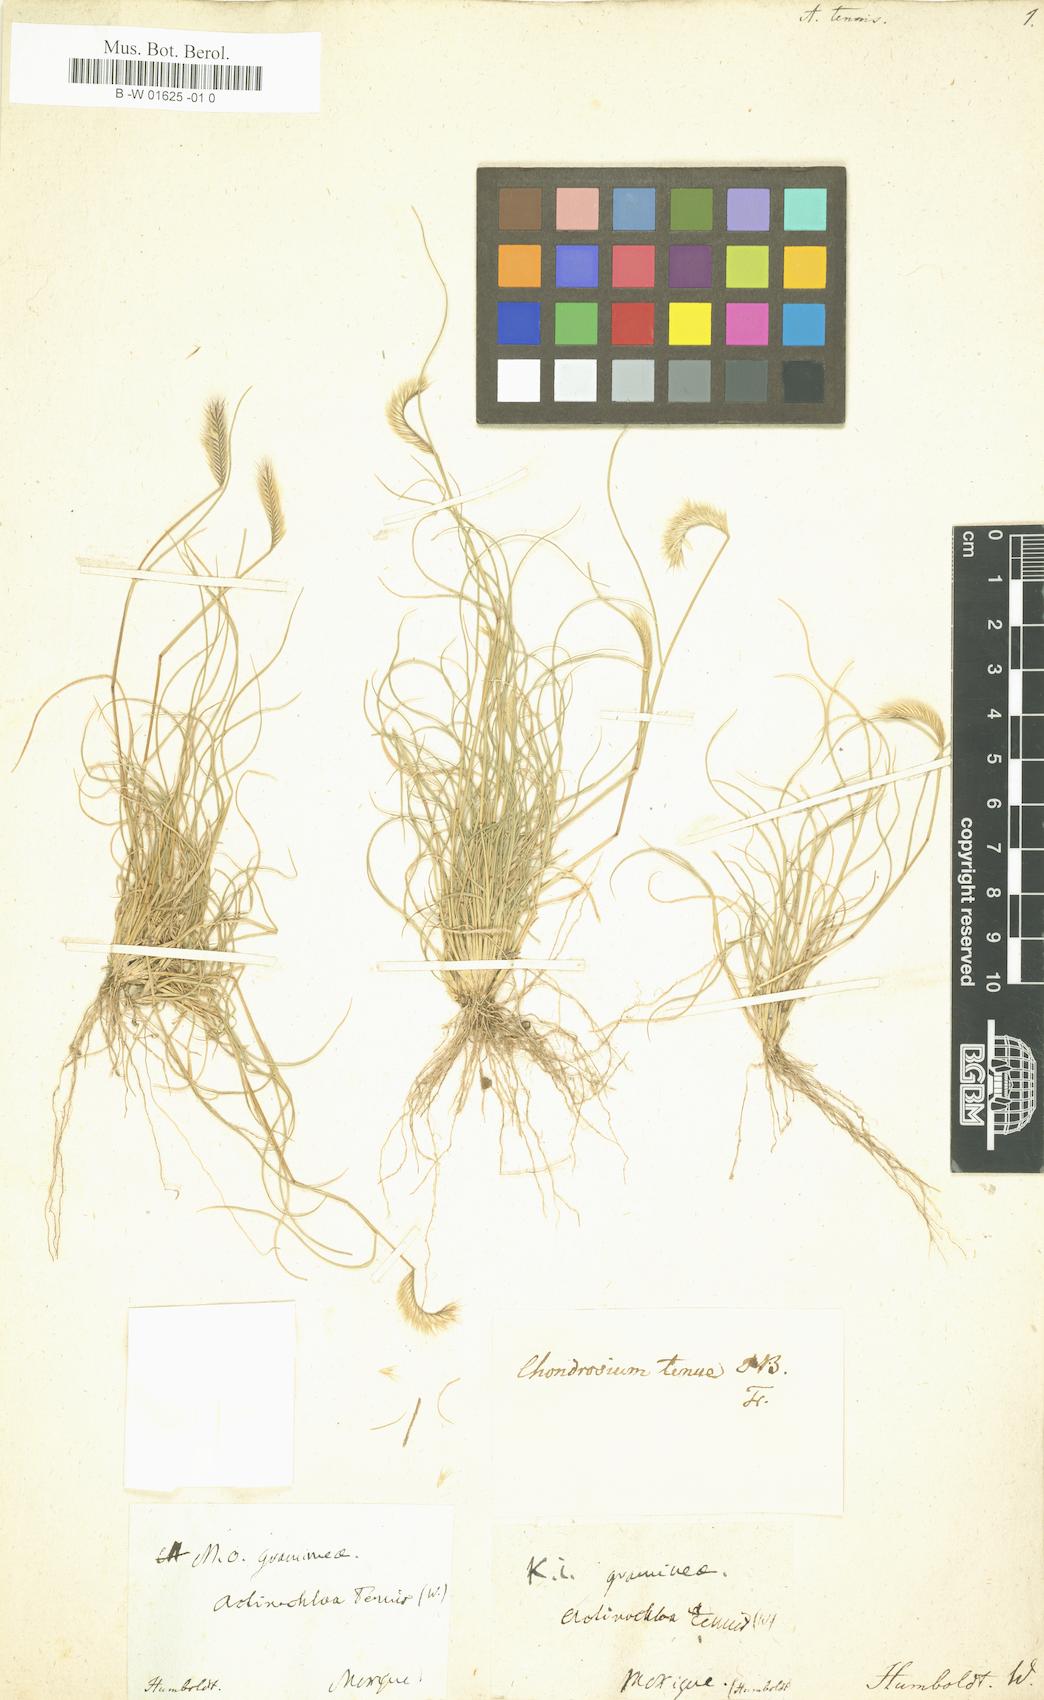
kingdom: Plantae
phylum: Tracheophyta
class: Liliopsida
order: Poales
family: Poaceae
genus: Bouteloua
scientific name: Bouteloua simplex
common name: Mat grama
